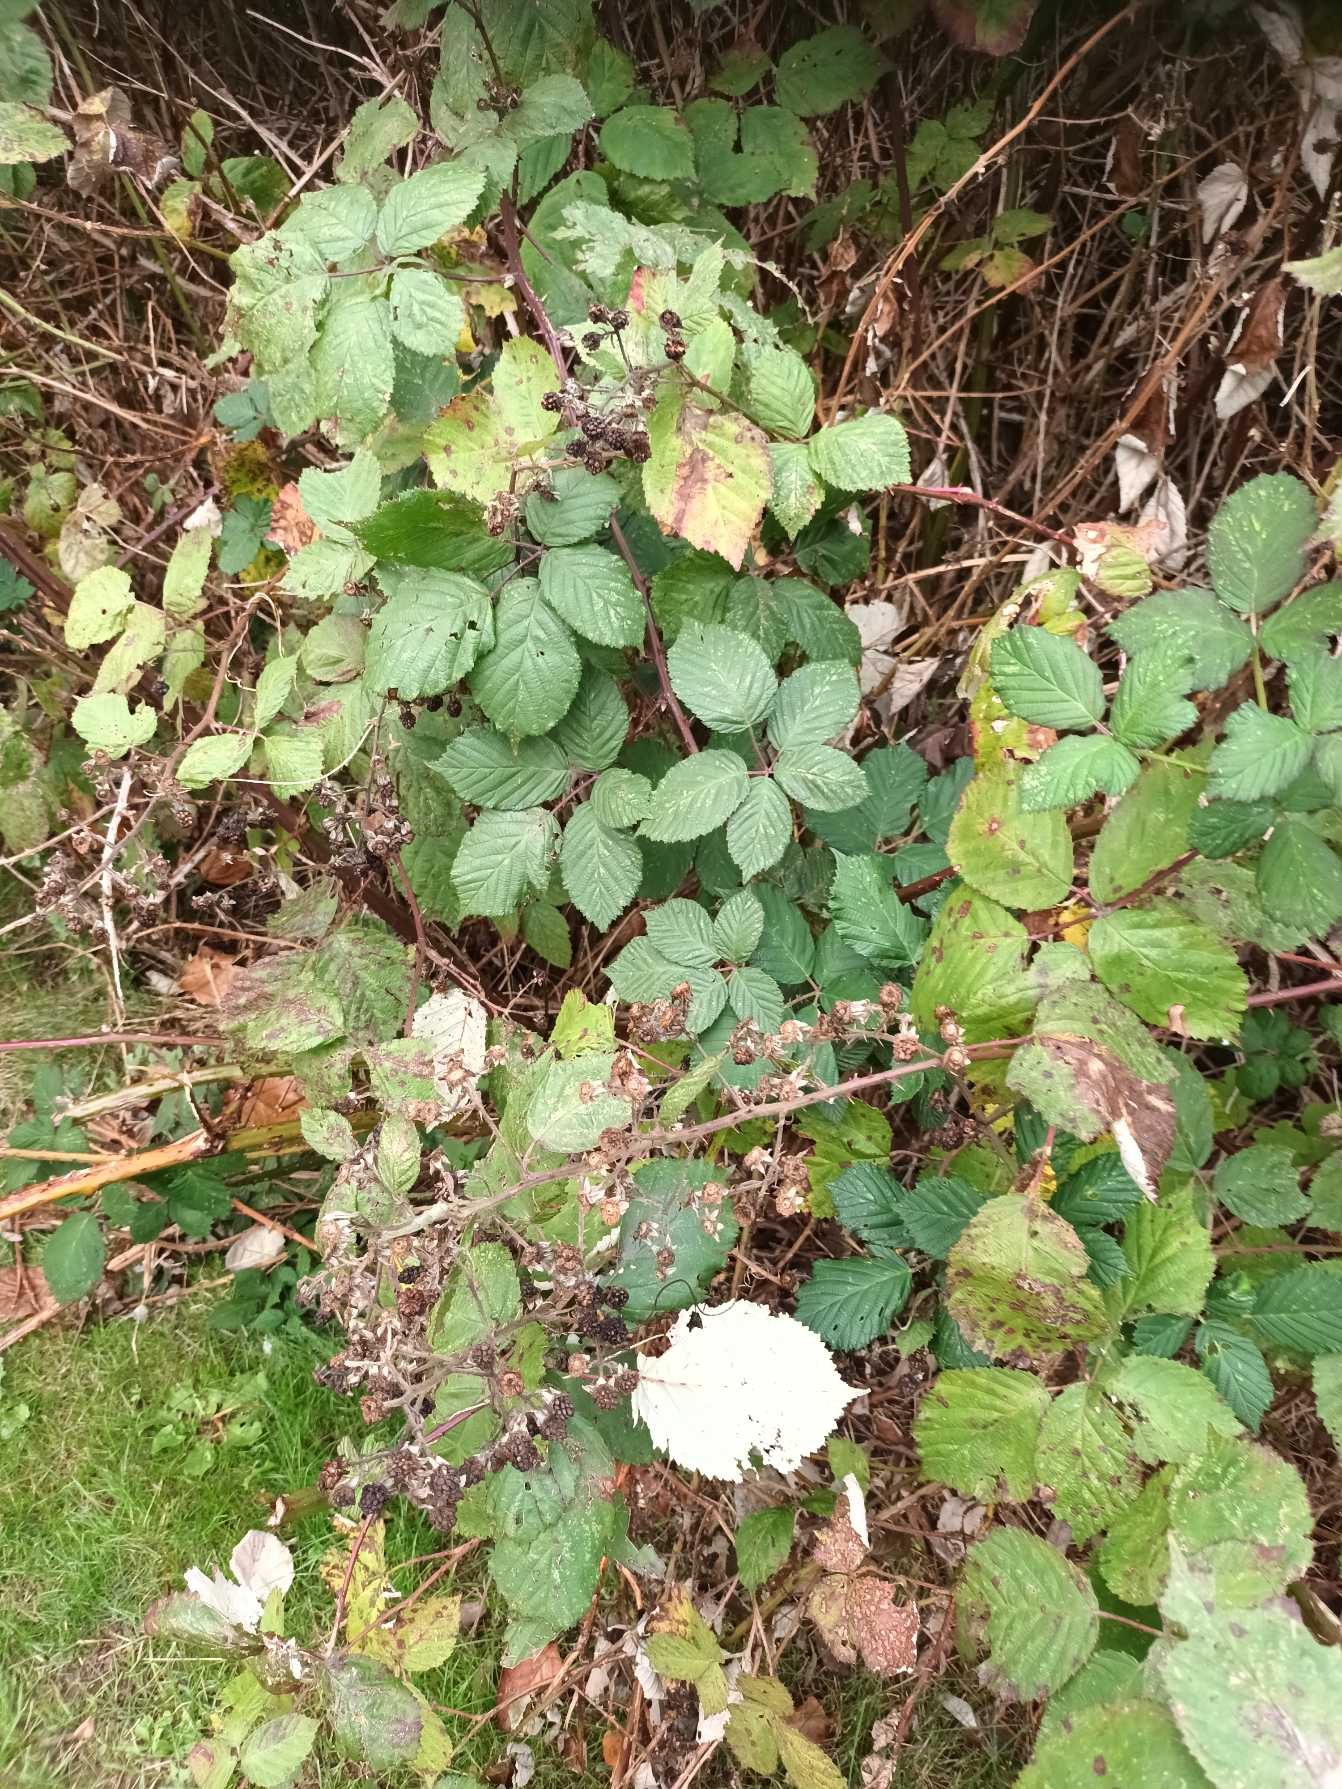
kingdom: Plantae
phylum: Tracheophyta
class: Magnoliopsida
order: Rosales
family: Rosaceae
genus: Rubus
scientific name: Rubus armeniacus
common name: Armensk brombær
